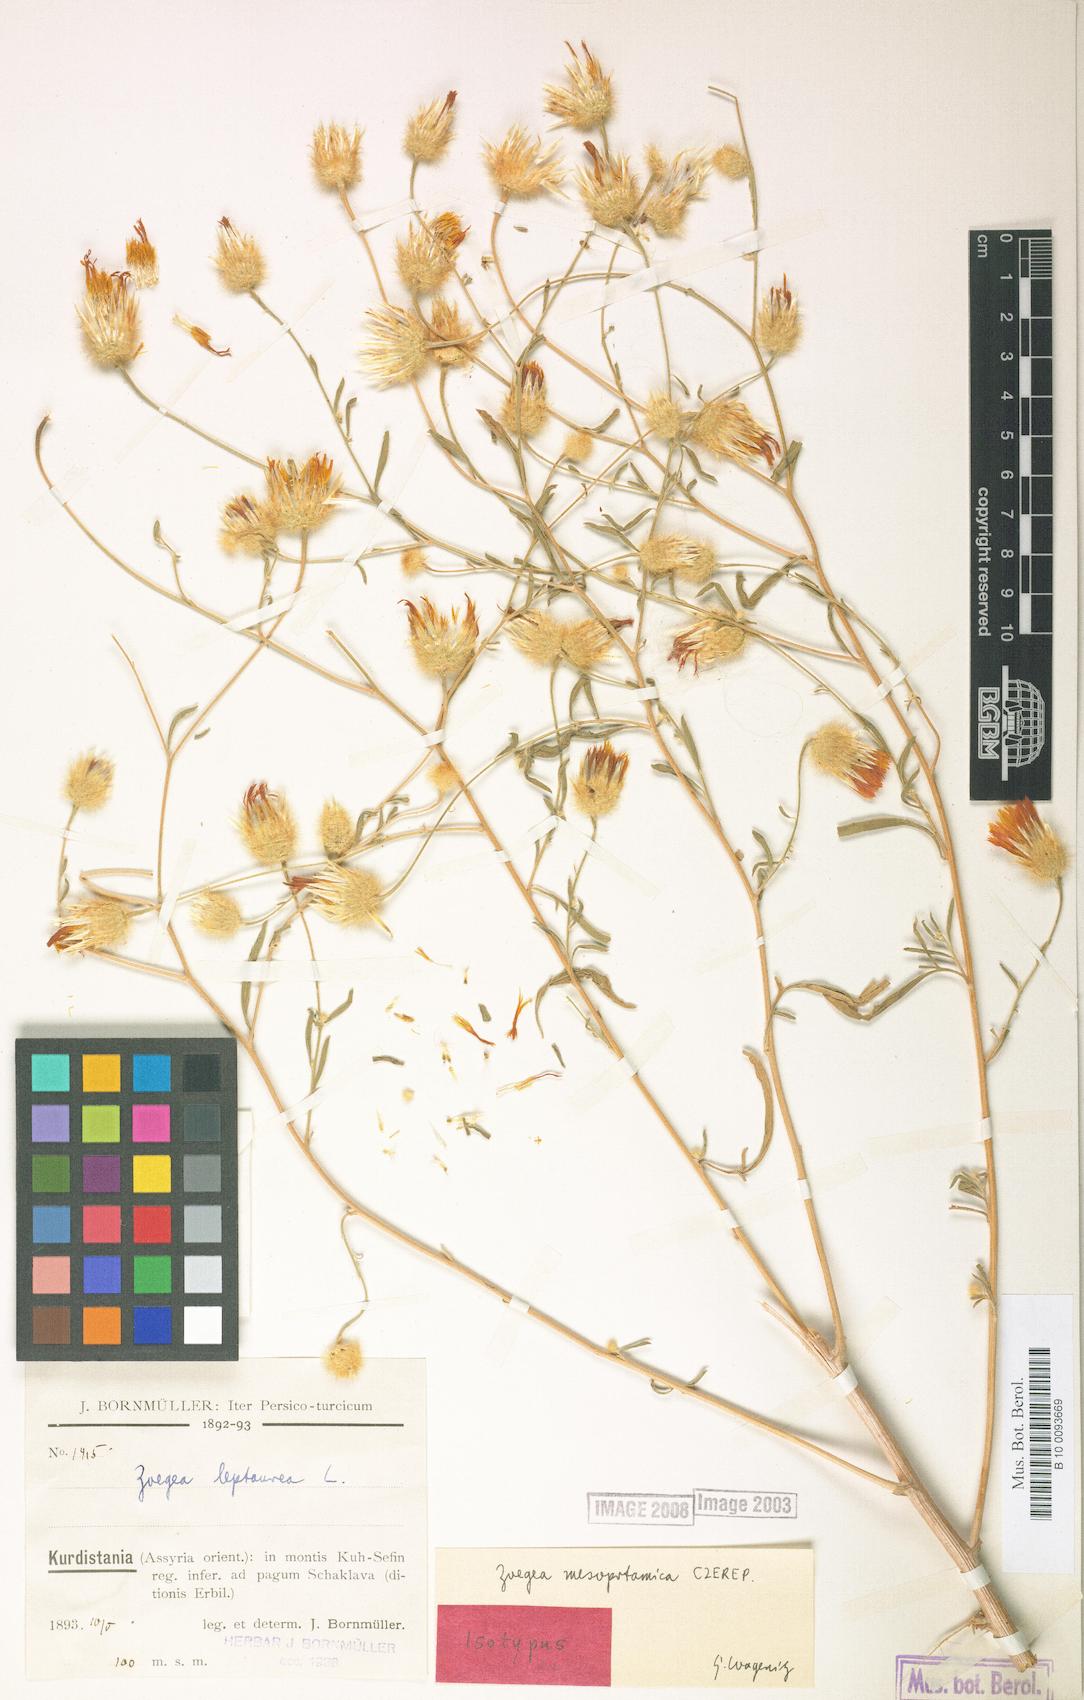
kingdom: Plantae
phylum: Tracheophyta
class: Magnoliopsida
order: Asterales
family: Asteraceae
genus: Zoegea
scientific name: Zoegea leptaurea
